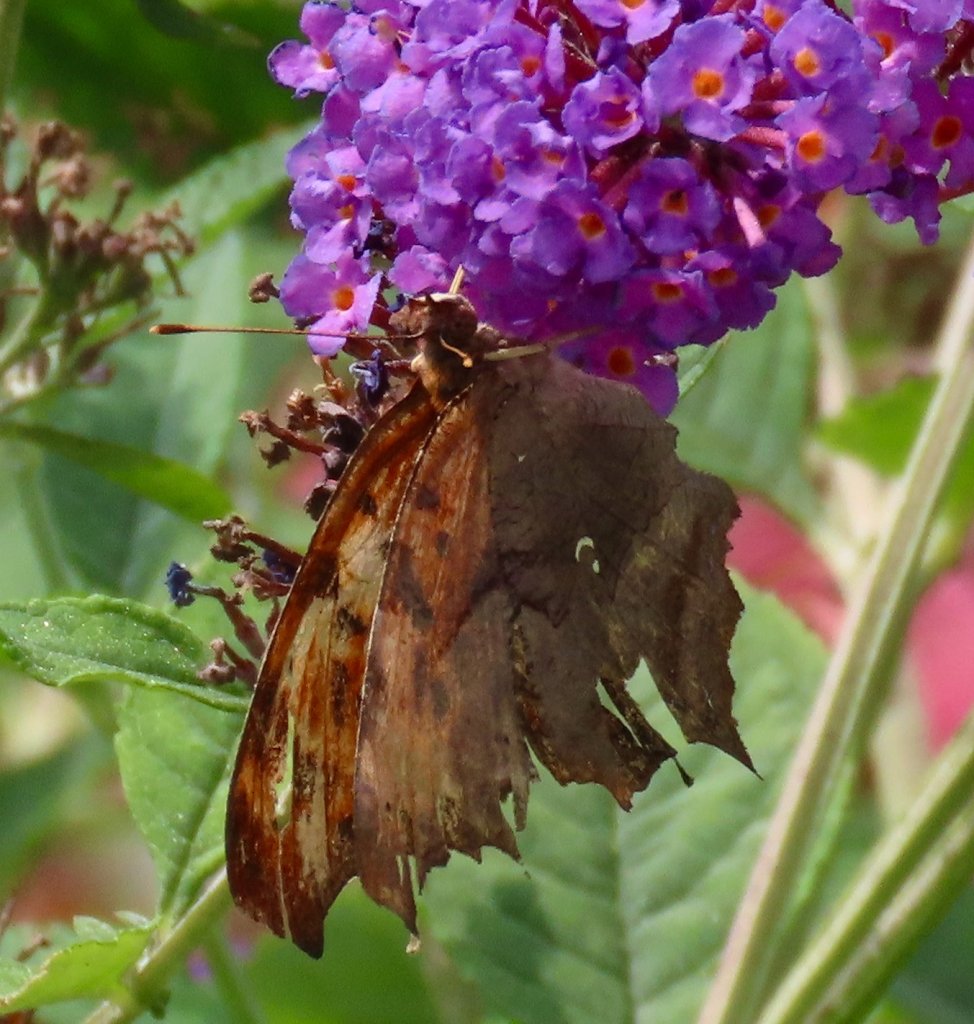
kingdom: Animalia
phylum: Arthropoda
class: Insecta
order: Lepidoptera
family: Nymphalidae
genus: Polygonia
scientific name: Polygonia interrogationis
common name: Question Mark
